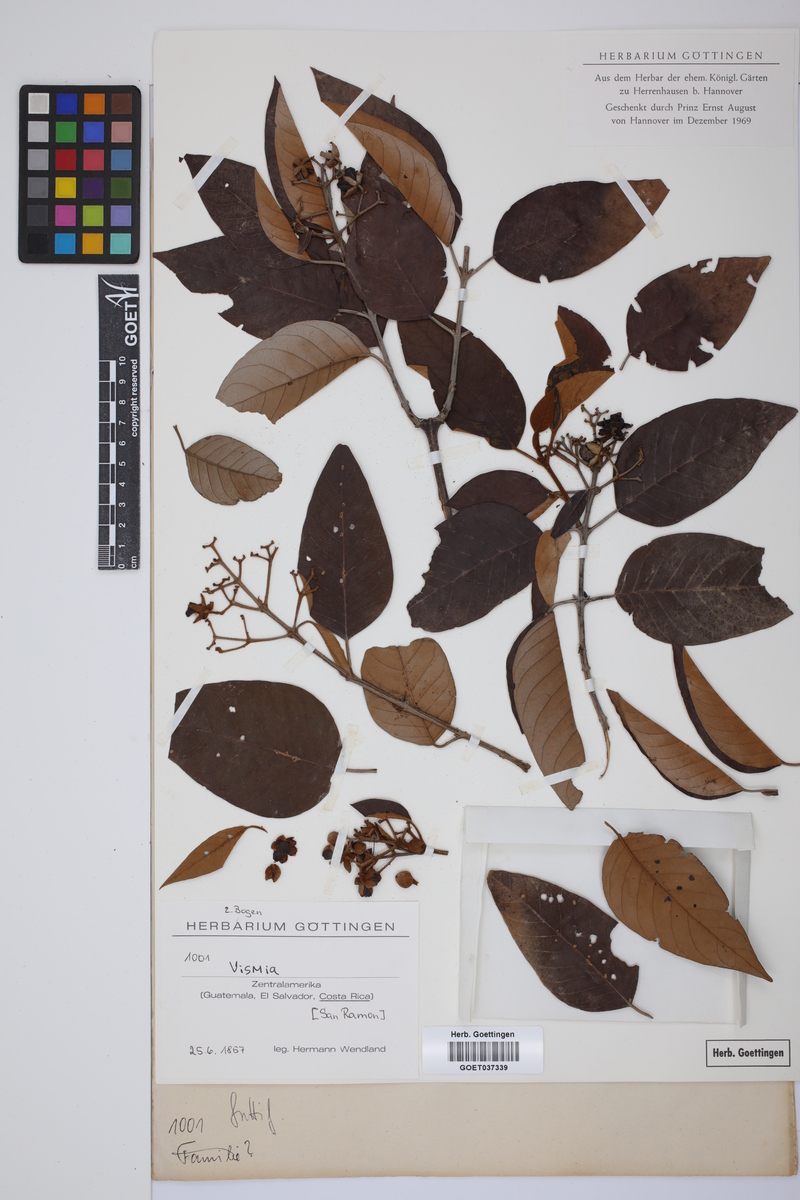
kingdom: Plantae
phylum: Tracheophyta
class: Magnoliopsida
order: Malpighiales
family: Hypericaceae
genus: Vismia
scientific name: Vismia
